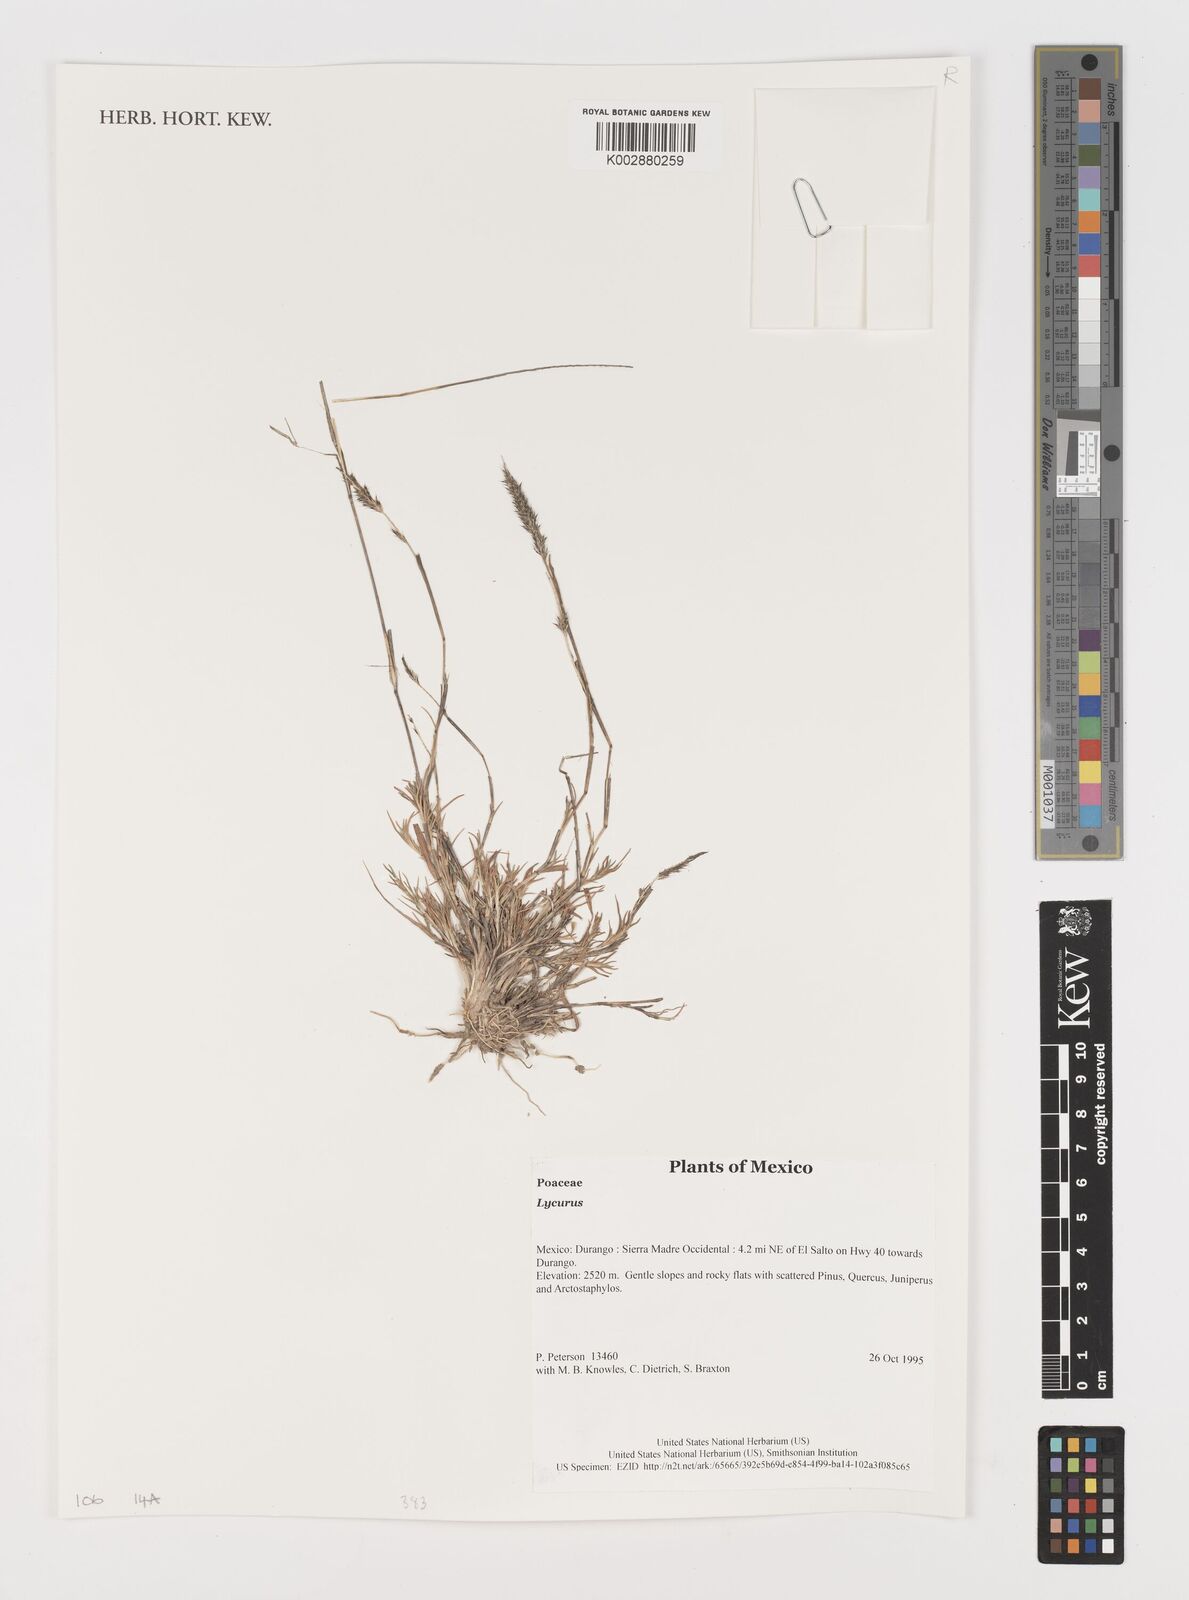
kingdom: Plantae
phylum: Tracheophyta
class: Liliopsida
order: Poales
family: Poaceae
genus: Muhlenbergia
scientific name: Muhlenbergia
